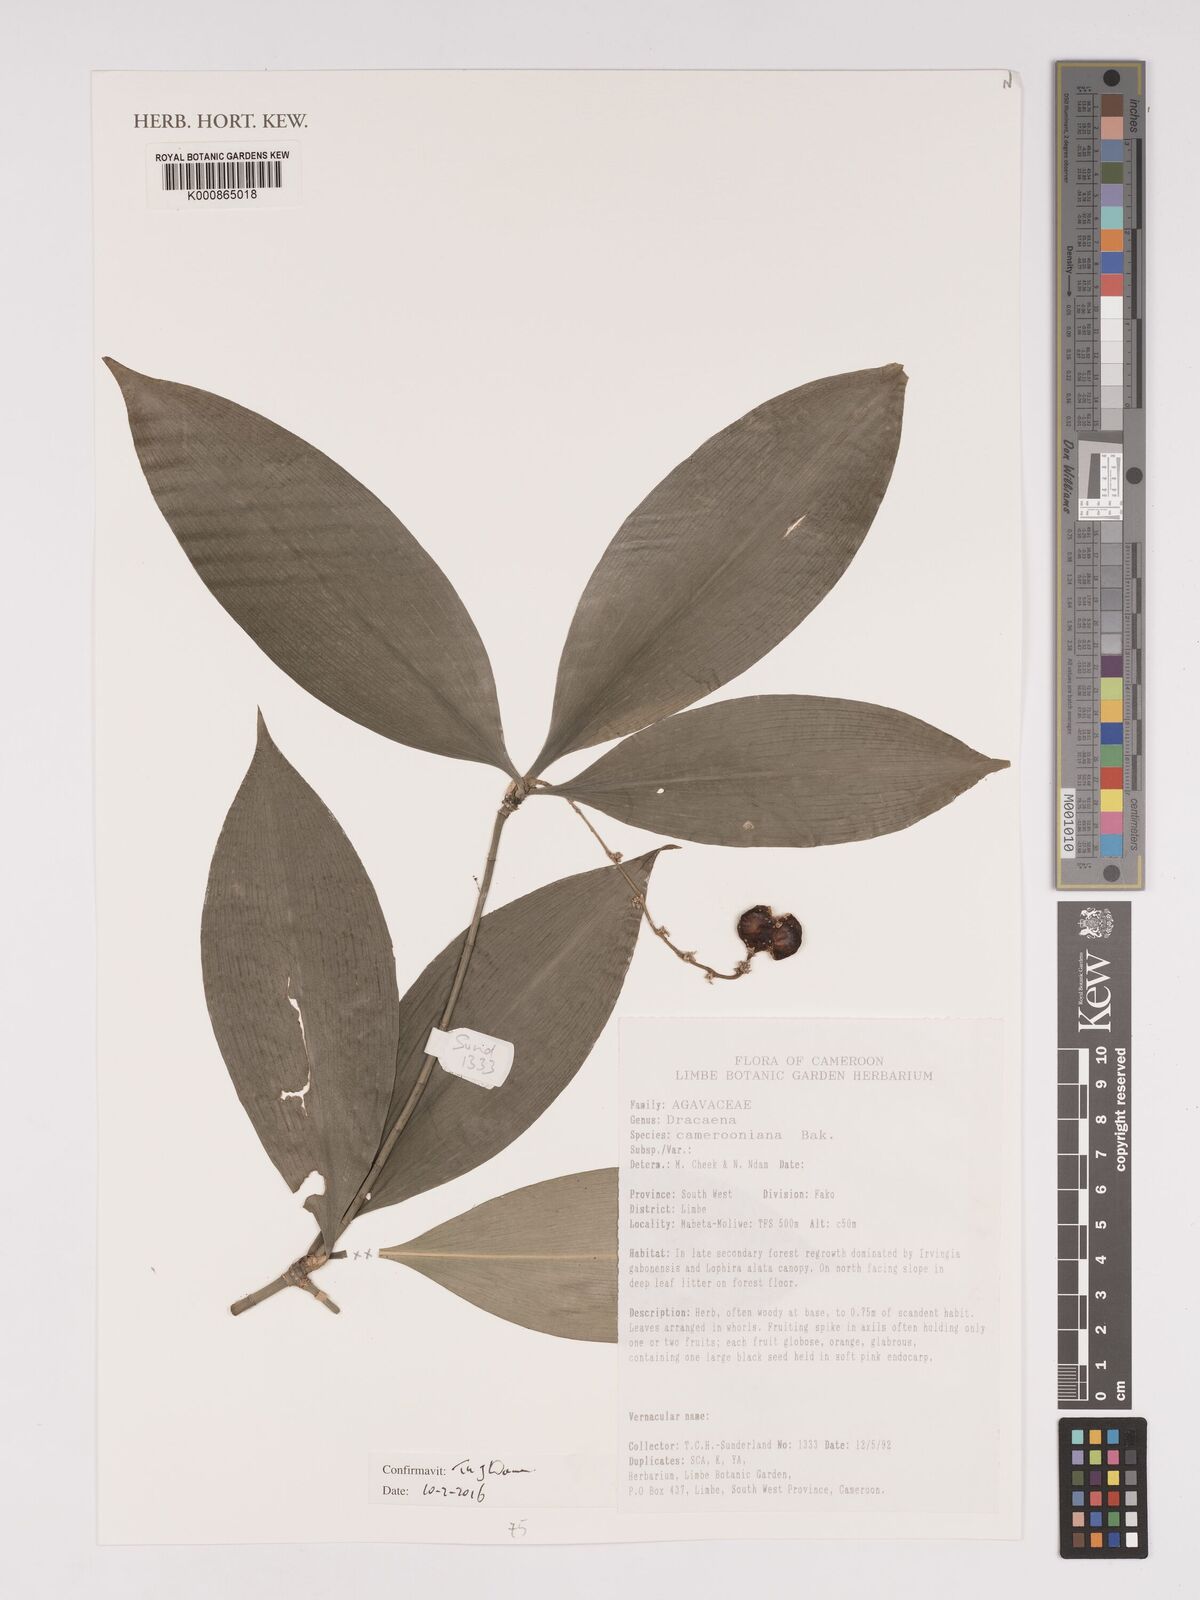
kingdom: Plantae
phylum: Tracheophyta
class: Liliopsida
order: Asparagales
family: Asparagaceae
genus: Dracaena
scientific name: Dracaena camerooniana
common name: Dragon tree
